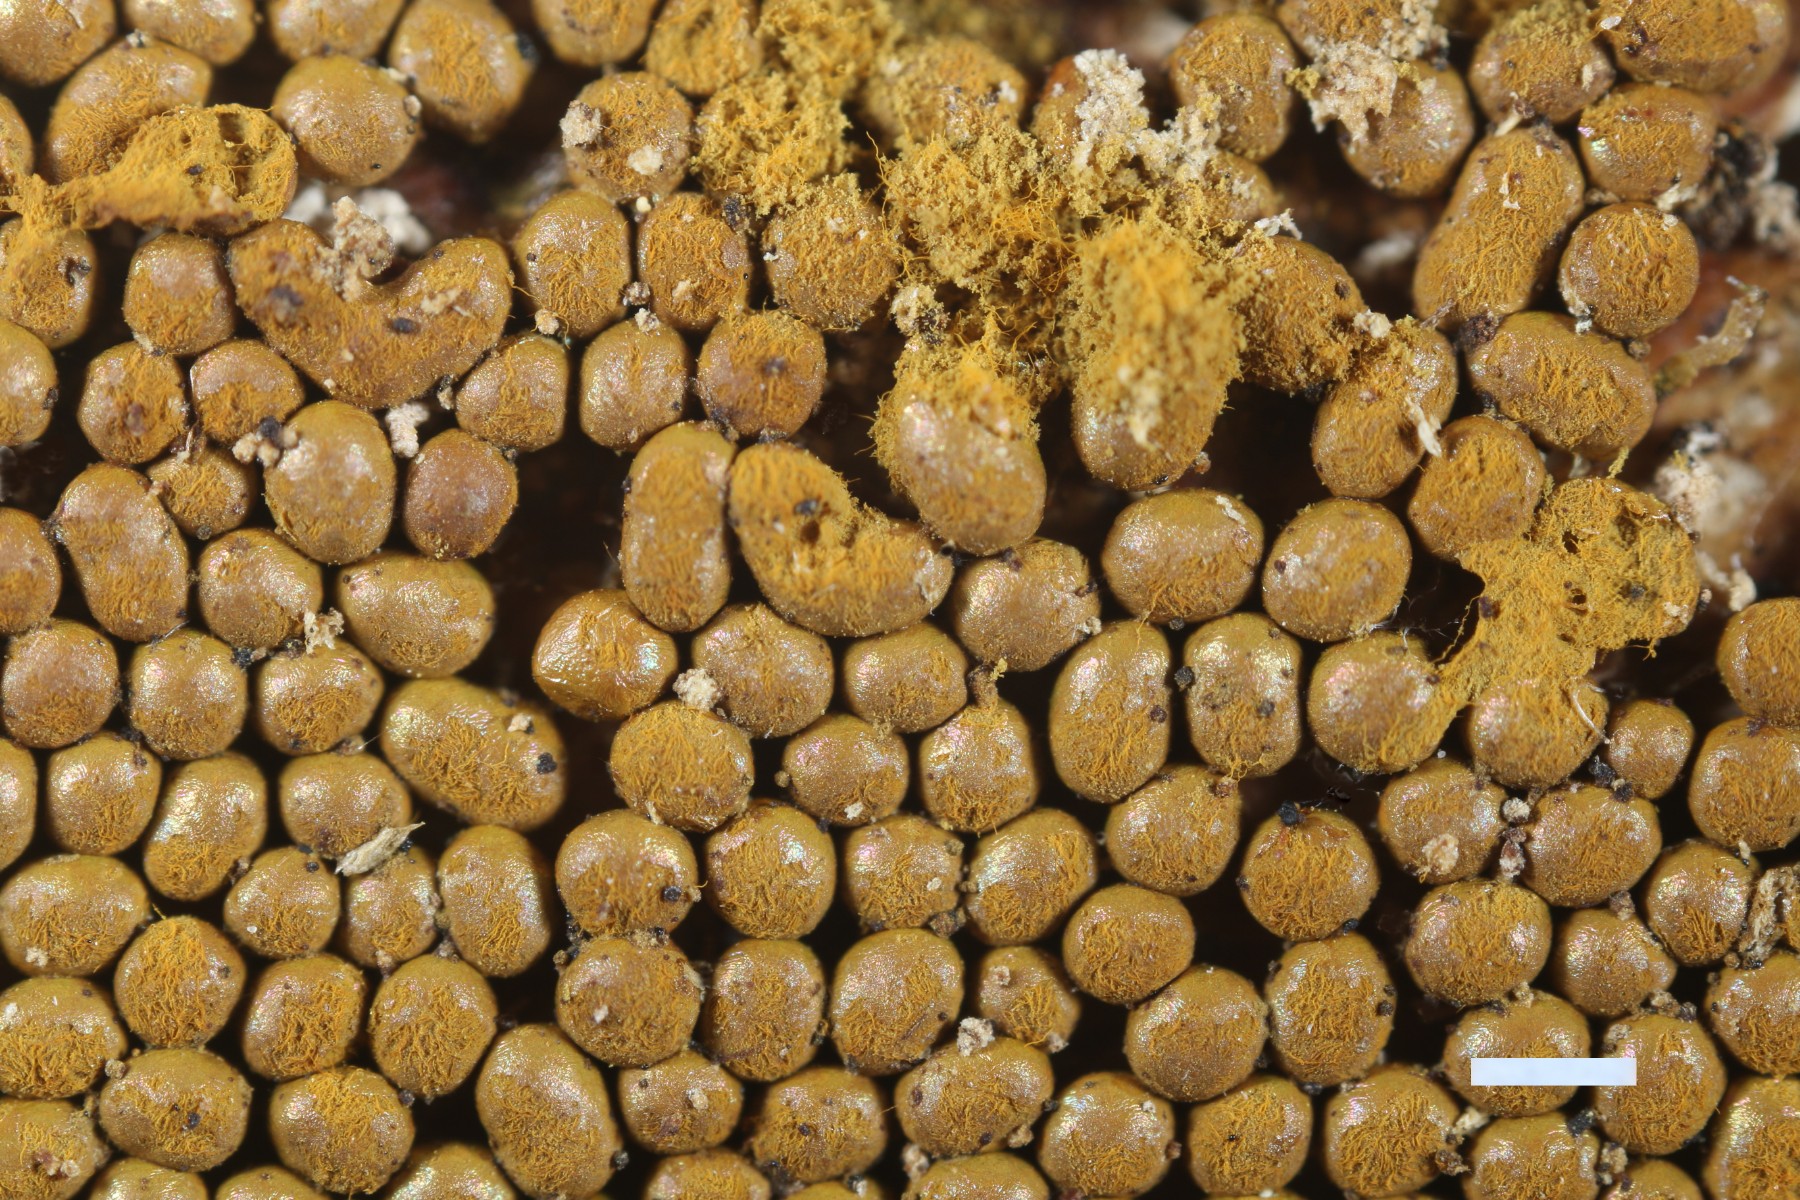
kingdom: Protozoa
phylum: Mycetozoa
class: Myxomycetes
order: Trichiales
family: Trichiaceae
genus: Trichia
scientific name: Trichia scabra
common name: tæppe-hårbold
